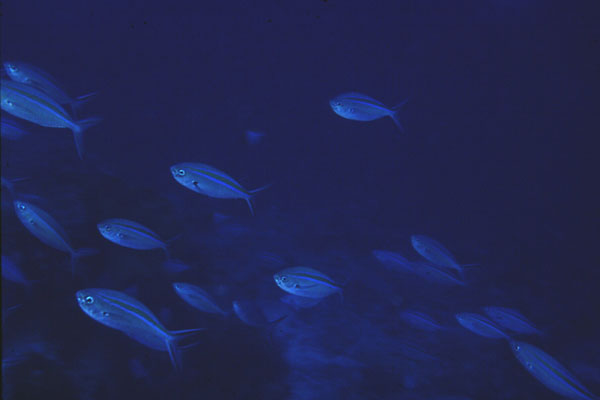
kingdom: Animalia
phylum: Chordata
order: Perciformes
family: Caesionidae
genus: Caesio
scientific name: Caesio caerulaurea
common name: Blue and gold fusilier
